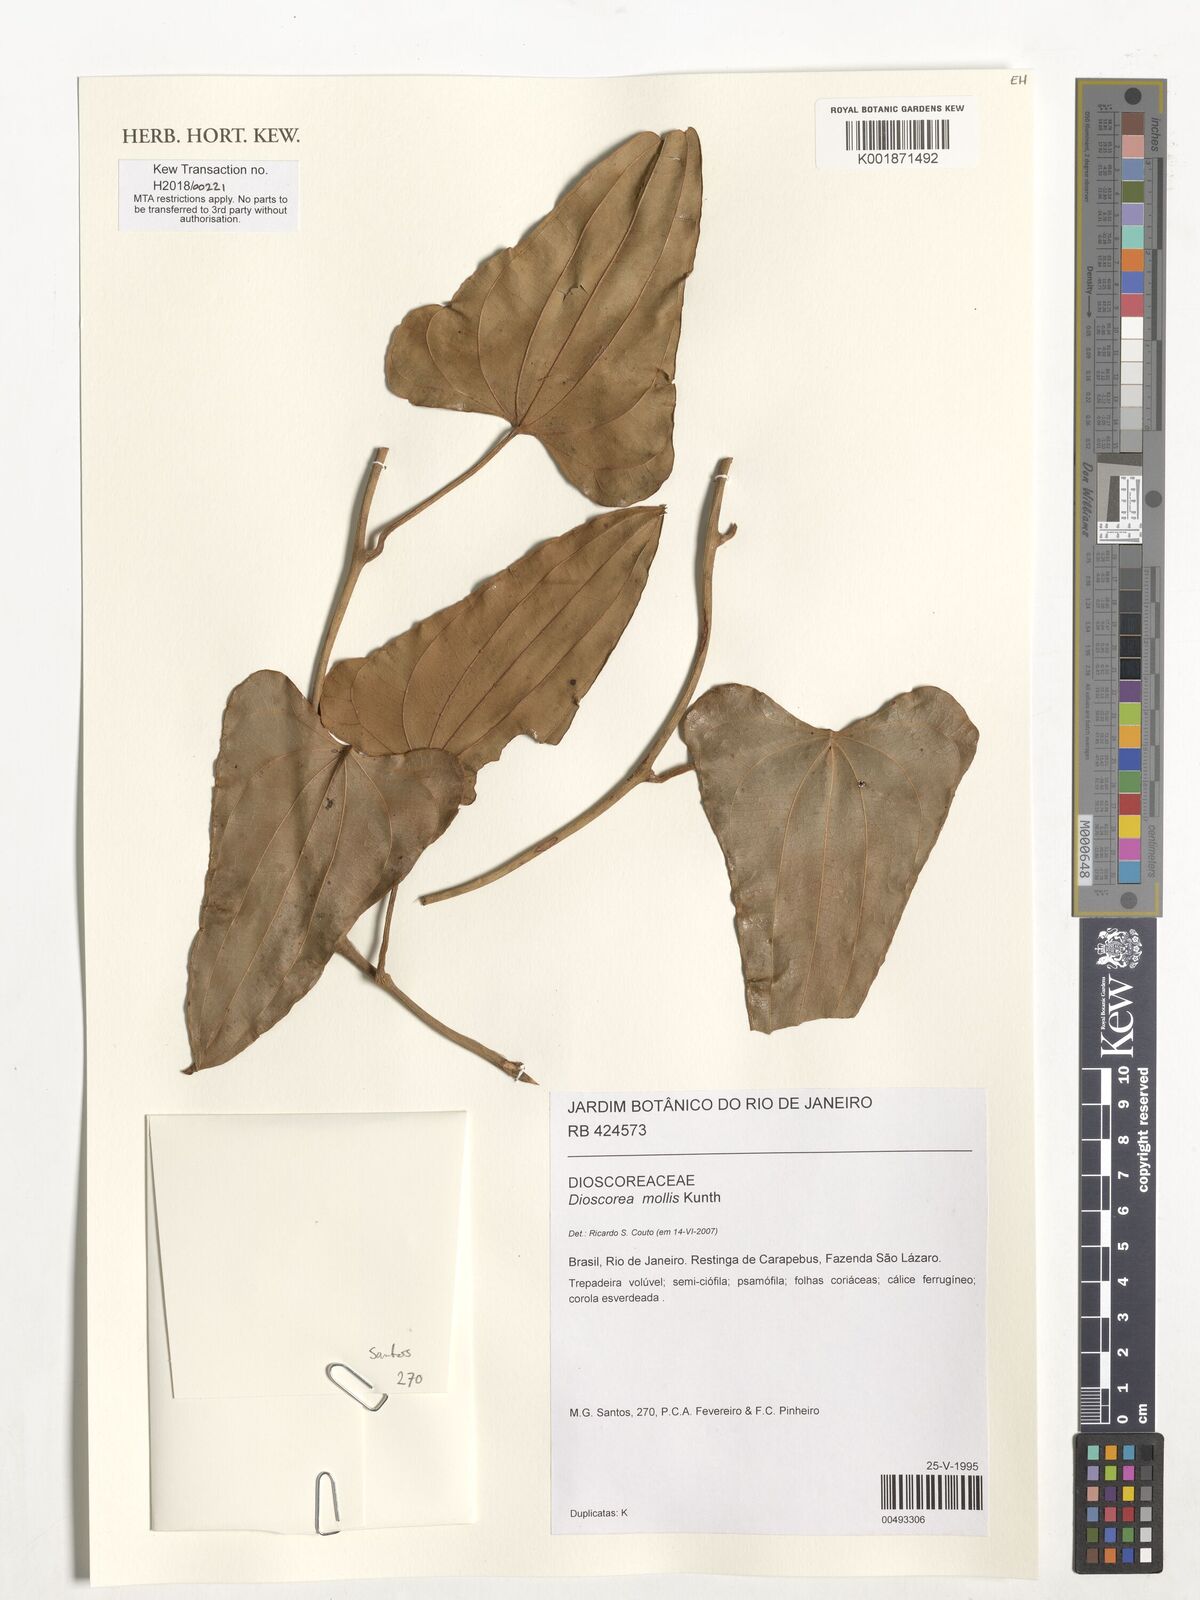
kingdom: Plantae
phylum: Tracheophyta
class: Liliopsida
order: Dioscoreales
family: Dioscoreaceae
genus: Dioscorea
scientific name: Dioscorea mollis
